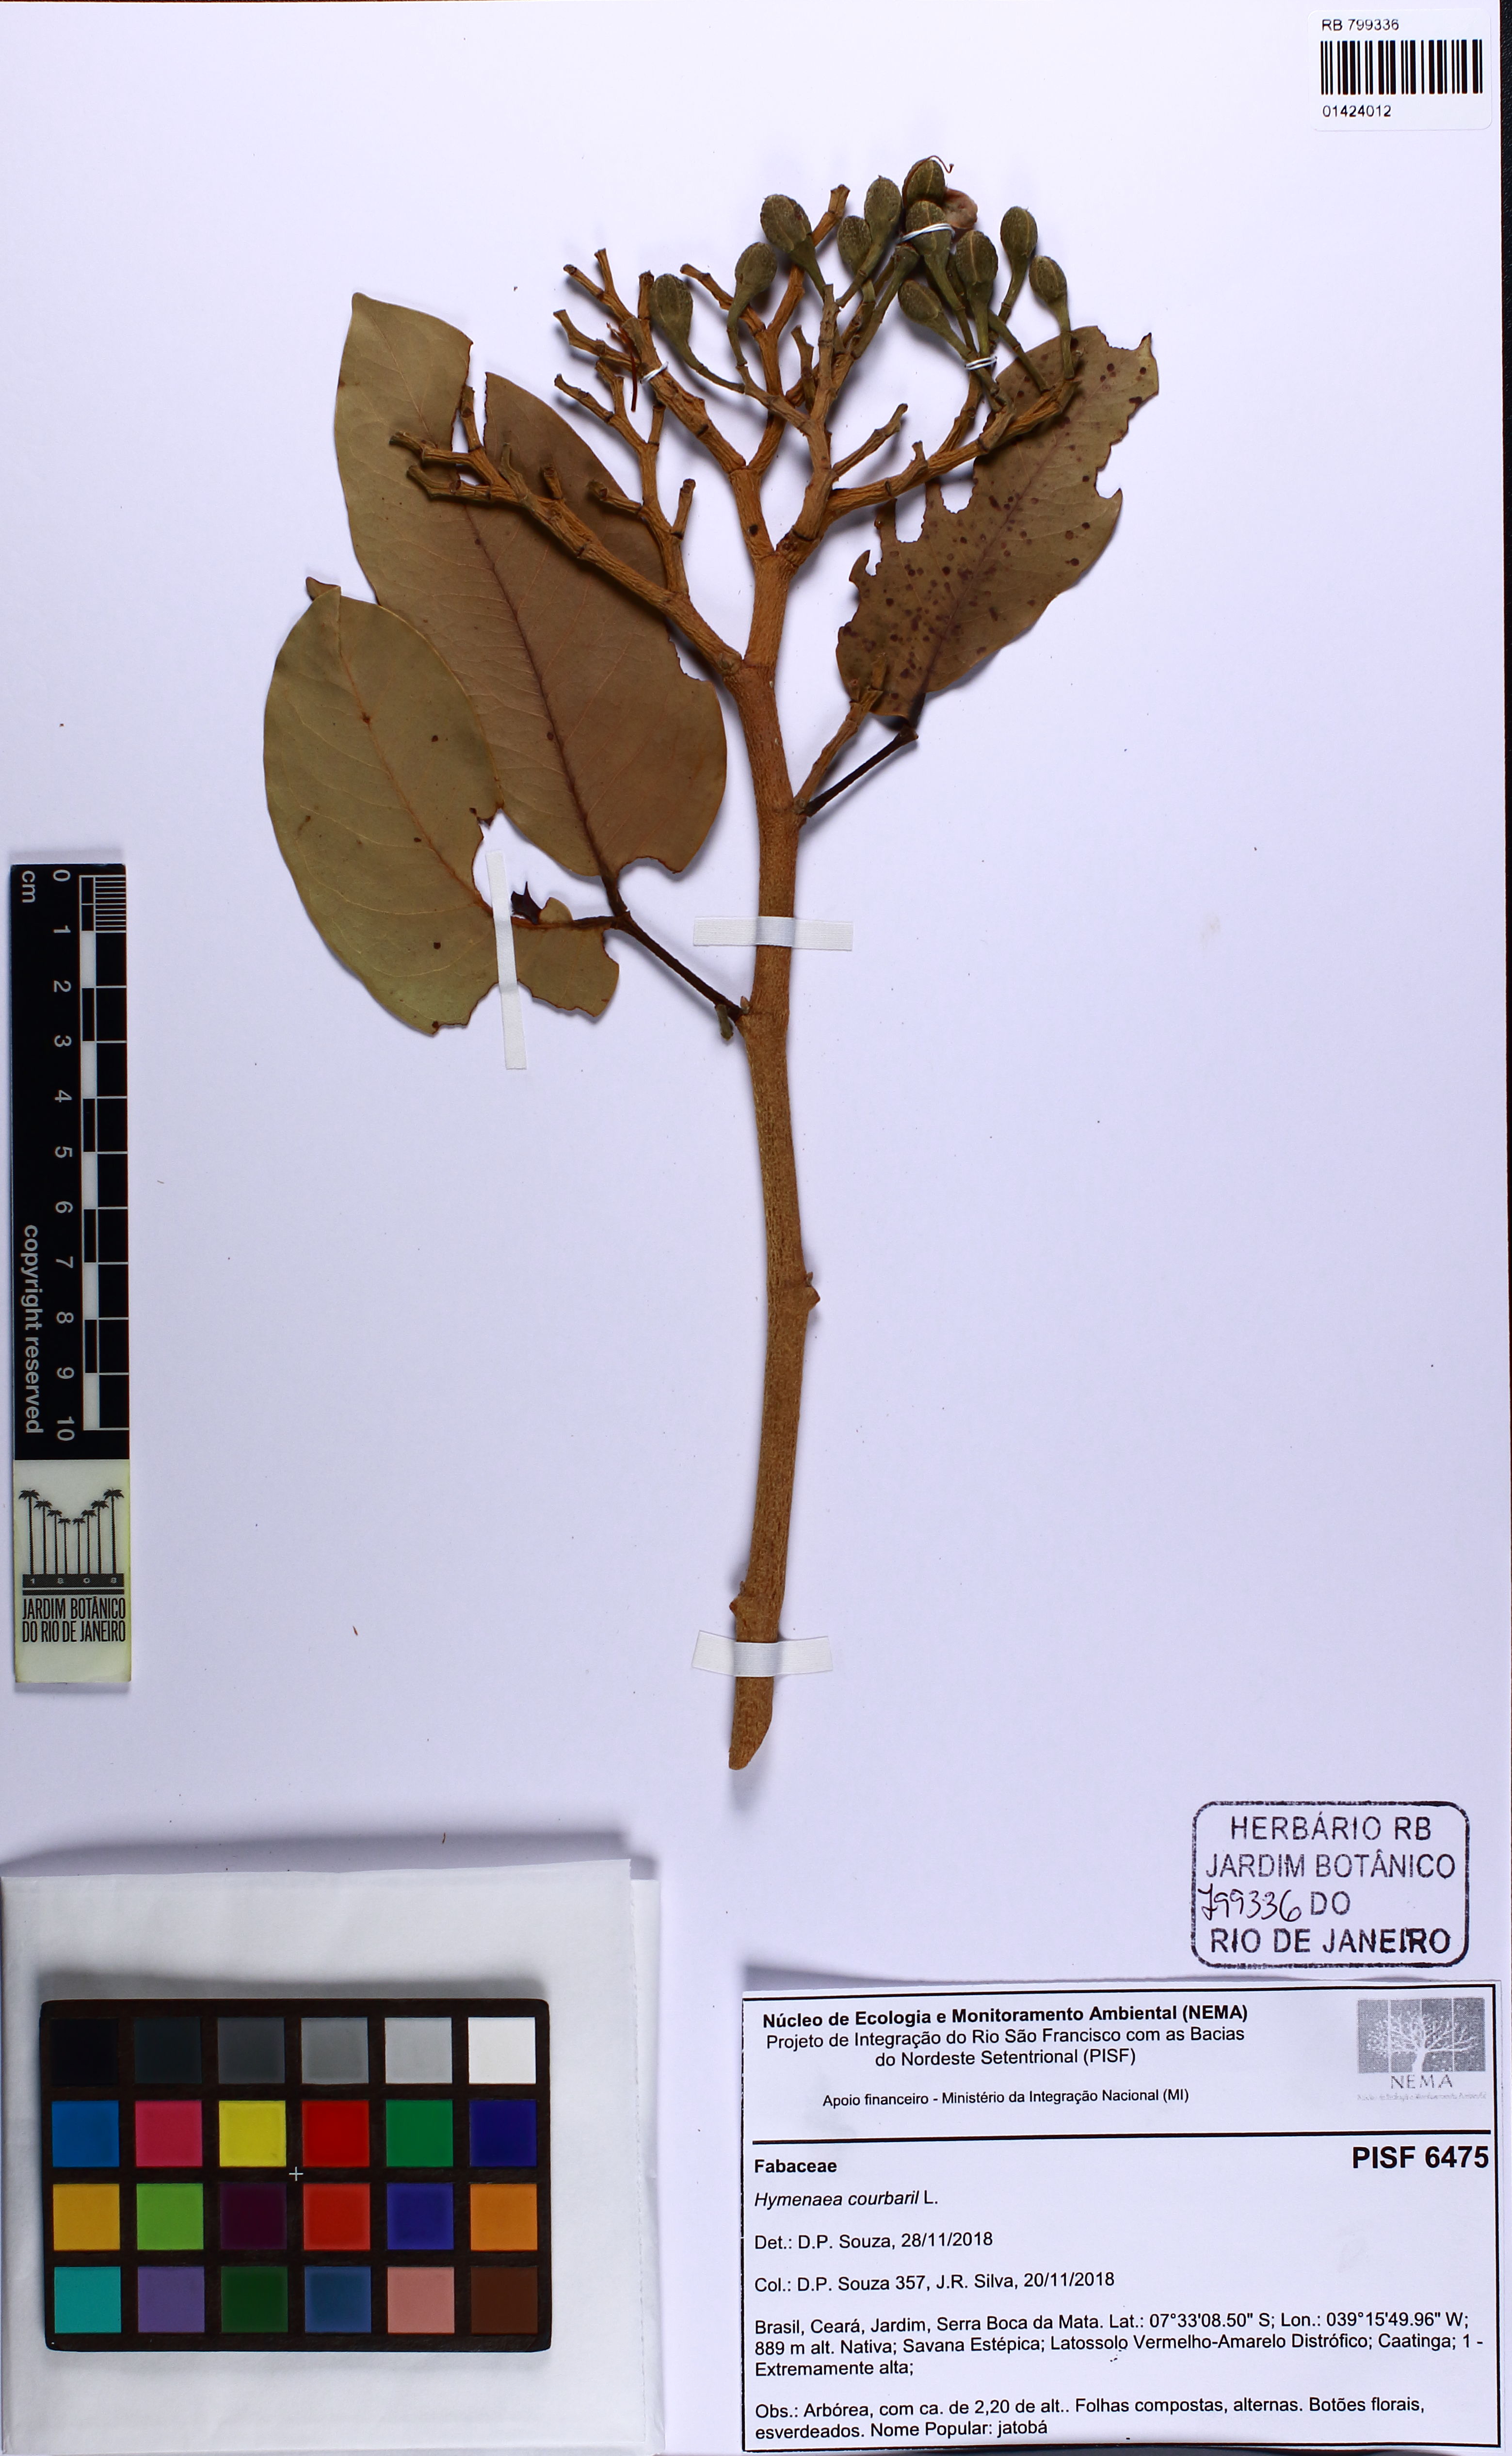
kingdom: Plantae
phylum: Tracheophyta
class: Magnoliopsida
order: Fabales
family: Fabaceae
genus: Hymenaea
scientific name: Hymenaea courbaril
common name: Brazilian copal
